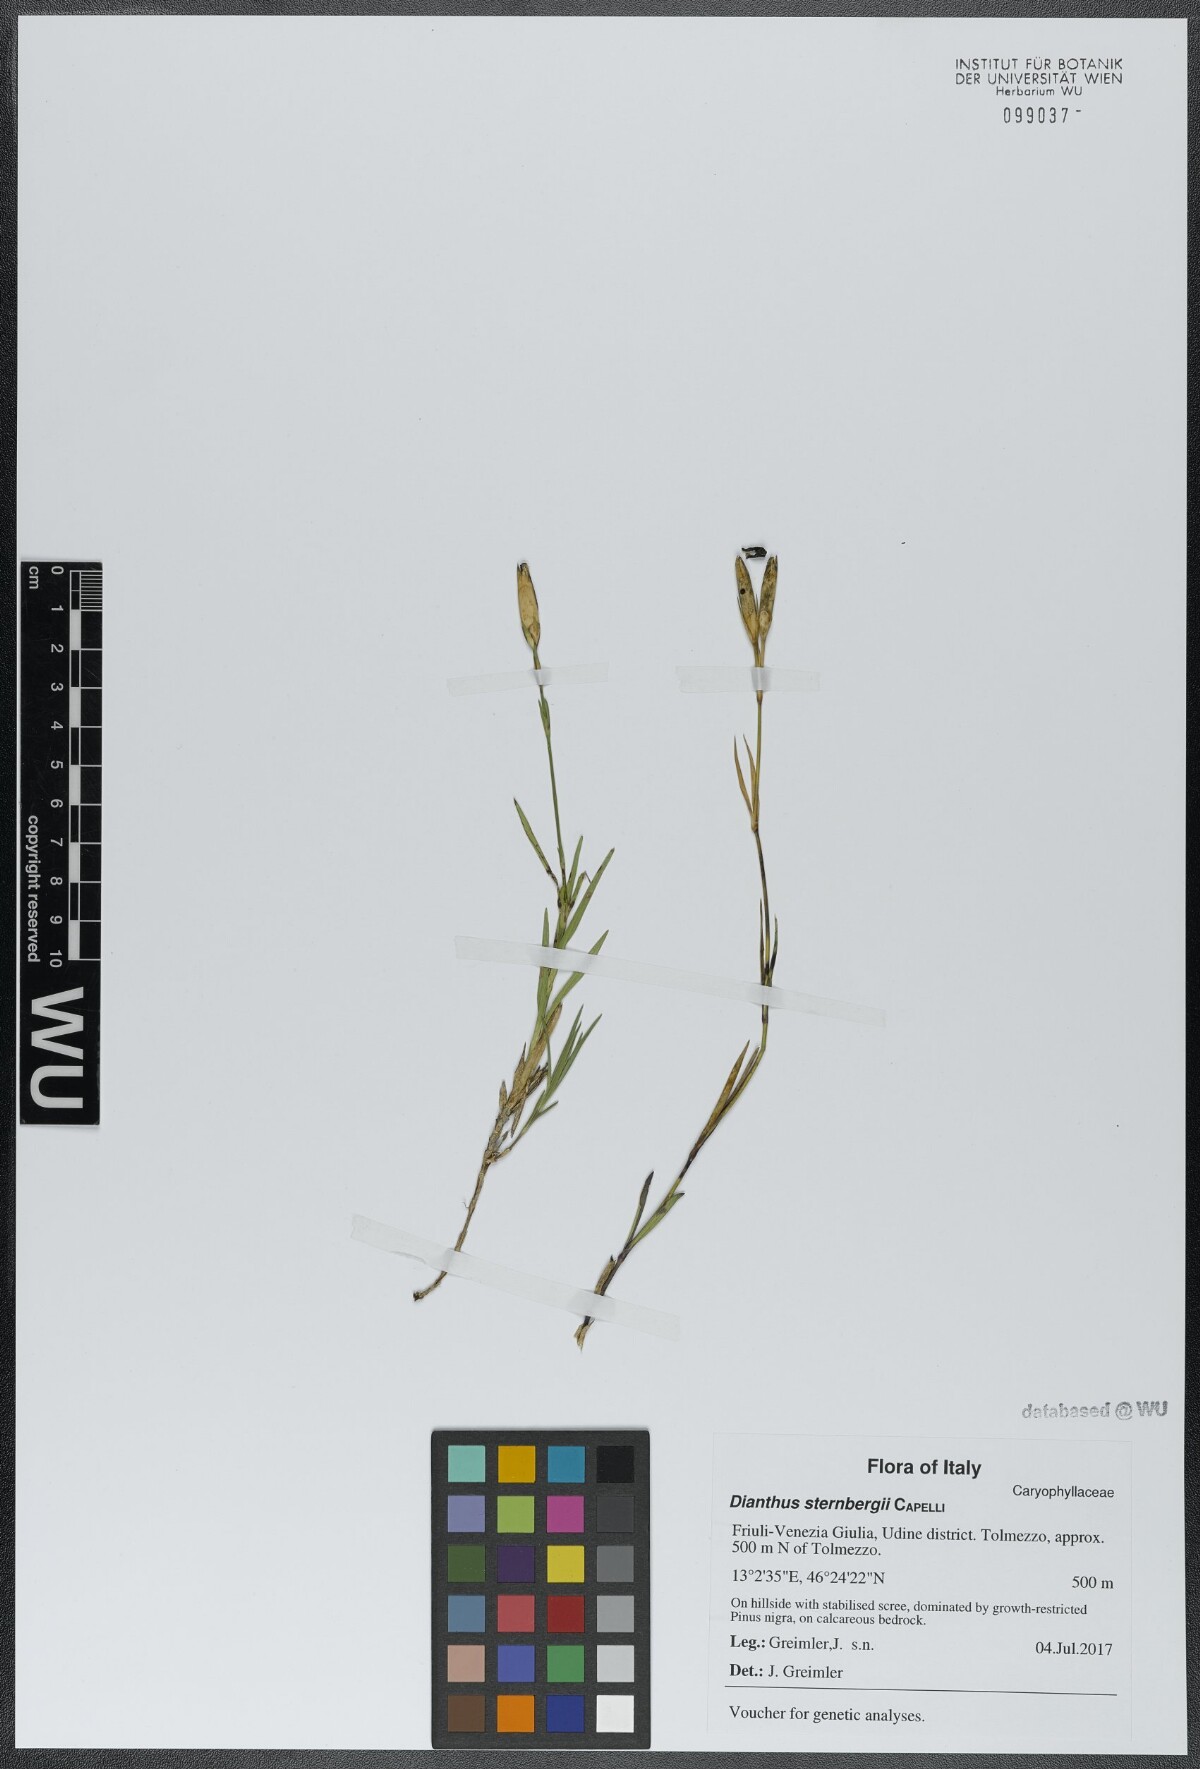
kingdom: Plantae
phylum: Tracheophyta
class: Magnoliopsida
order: Caryophyllales
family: Caryophyllaceae
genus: Dianthus
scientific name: Dianthus sternbergii
